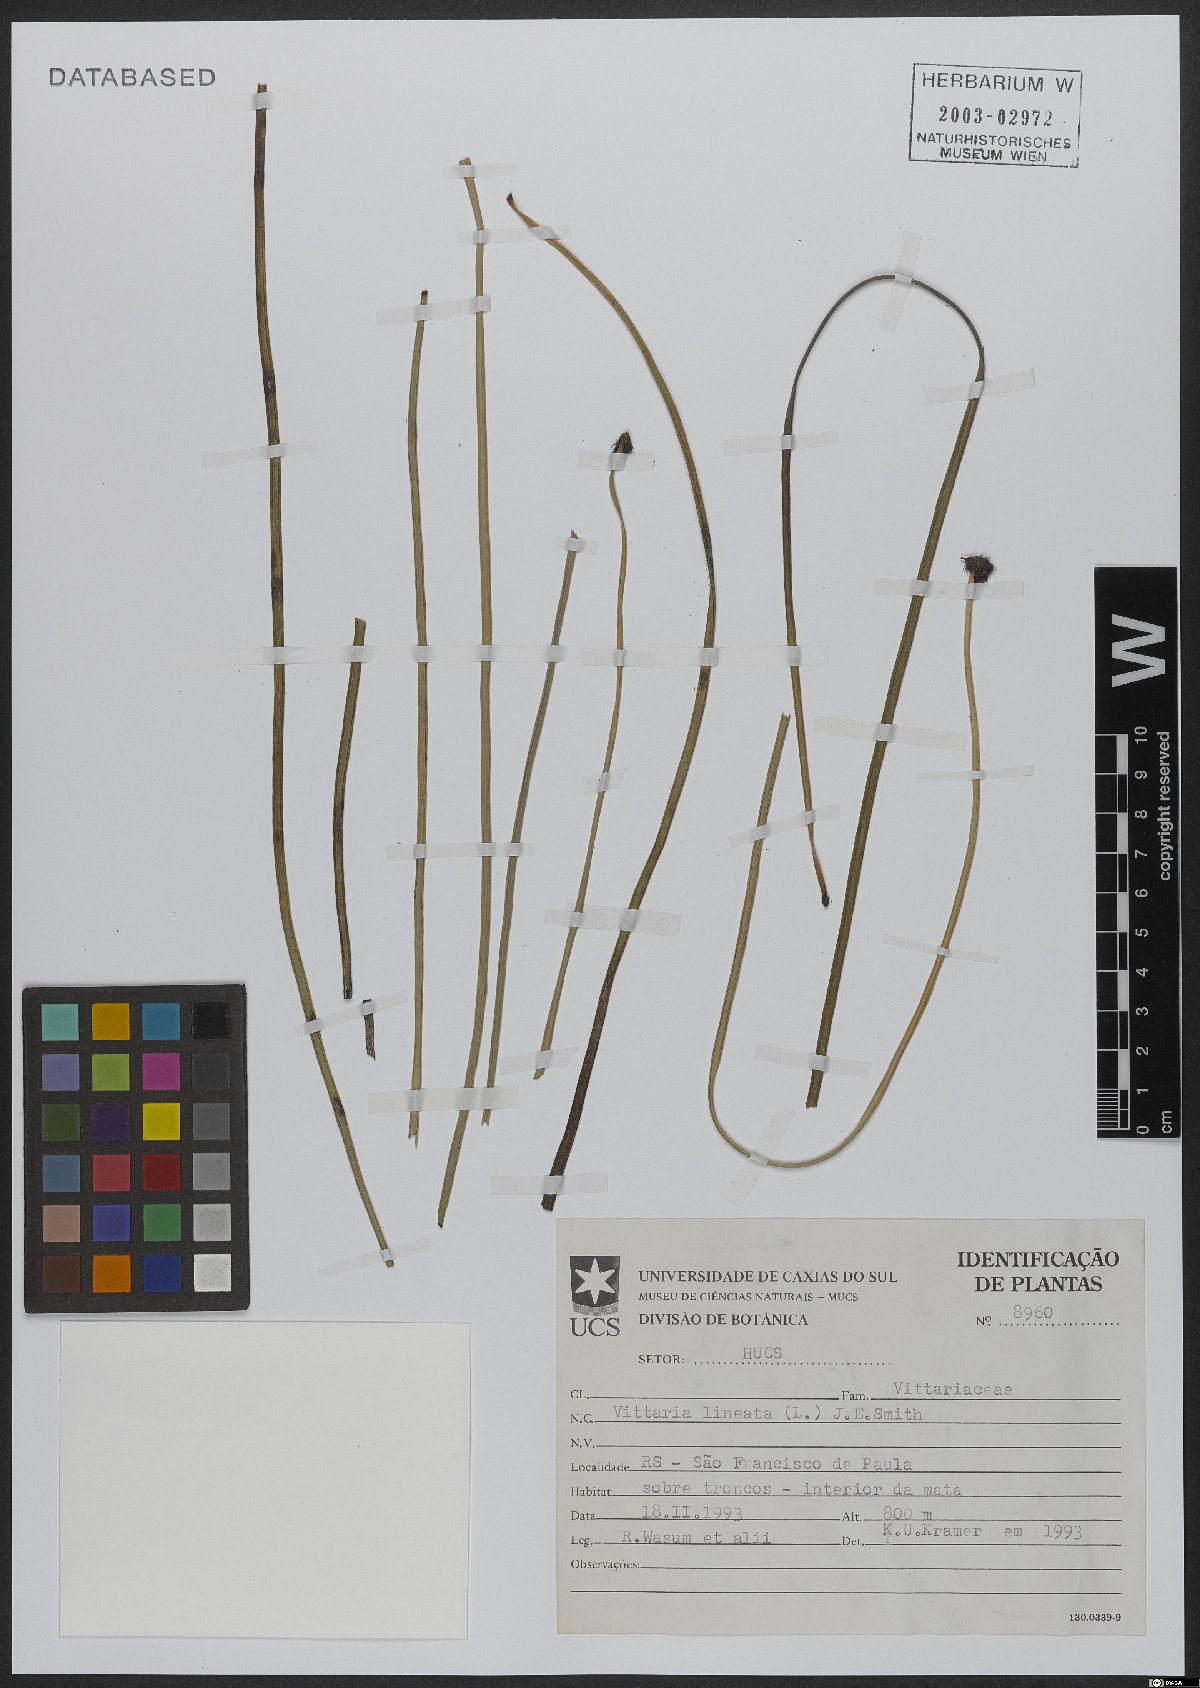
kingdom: Plantae
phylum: Tracheophyta
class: Polypodiopsida
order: Polypodiales
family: Pteridaceae
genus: Vittaria
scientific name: Vittaria lineata
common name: Shoestring fern
